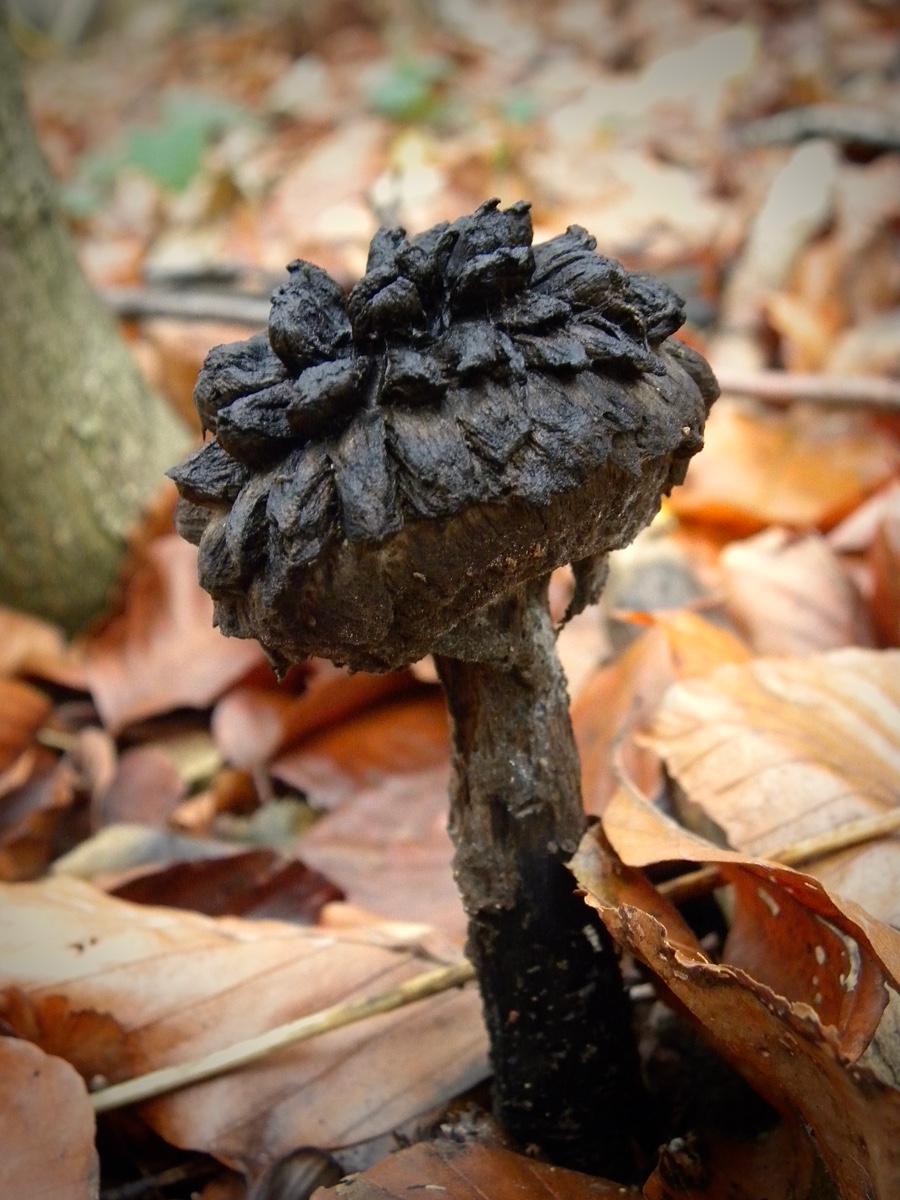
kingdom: Fungi
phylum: Basidiomycota
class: Agaricomycetes
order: Boletales
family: Boletaceae
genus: Strobilomyces
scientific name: Strobilomyces strobilaceus
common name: koglerørhat
